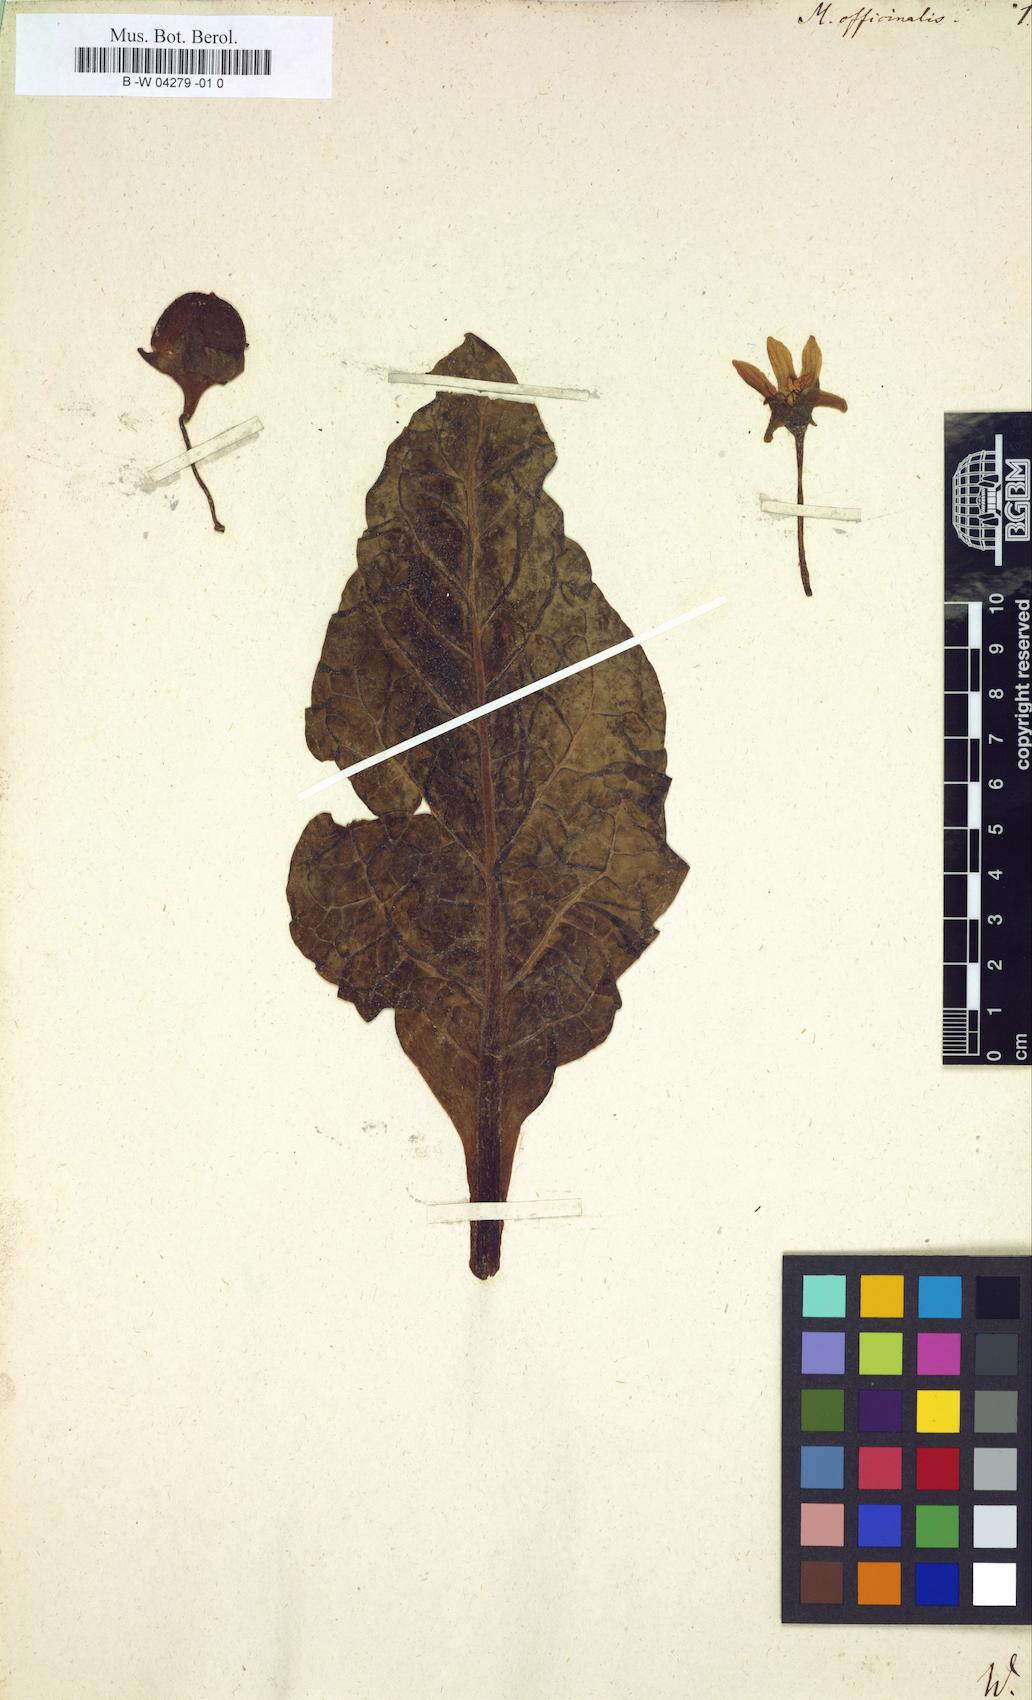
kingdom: Plantae
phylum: Tracheophyta
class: Magnoliopsida
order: Solanales
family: Solanaceae
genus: Mandragora
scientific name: Mandragora officinarum
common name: Mandrake
